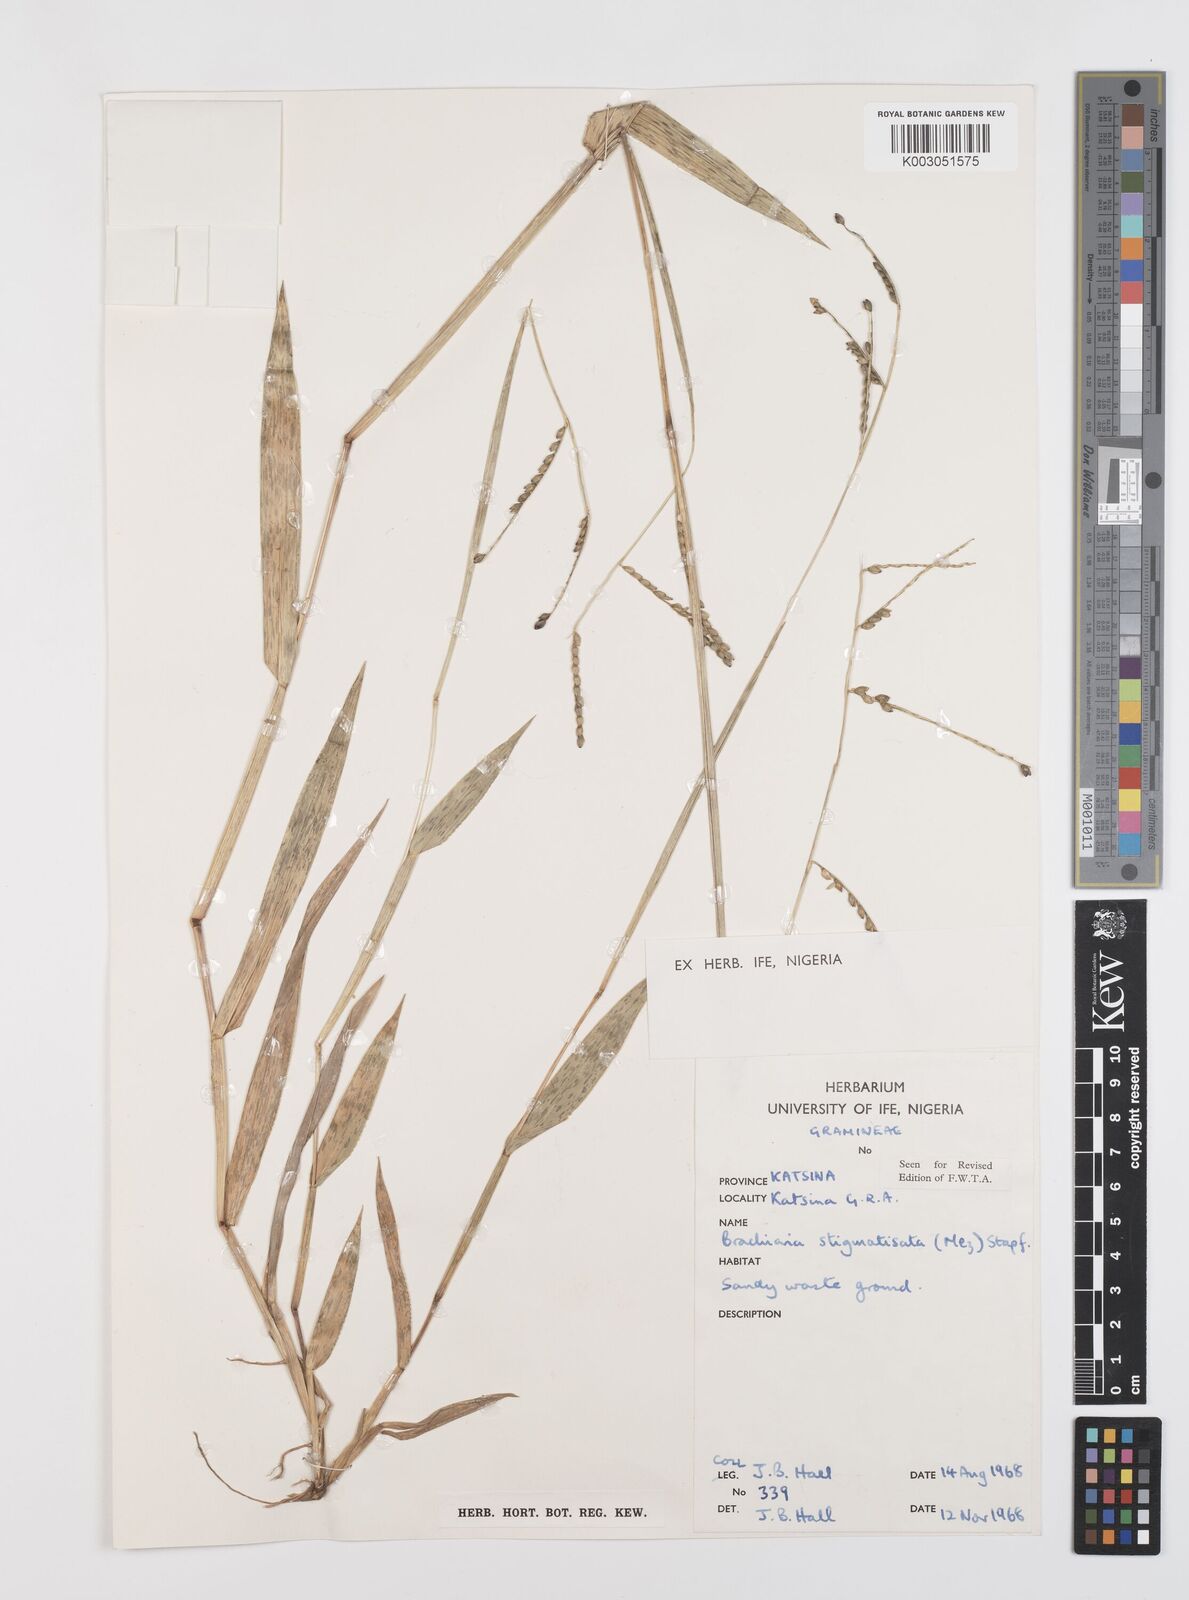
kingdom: Plantae
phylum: Tracheophyta
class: Liliopsida
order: Poales
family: Poaceae
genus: Urochloa
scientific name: Urochloa stigmatisata
